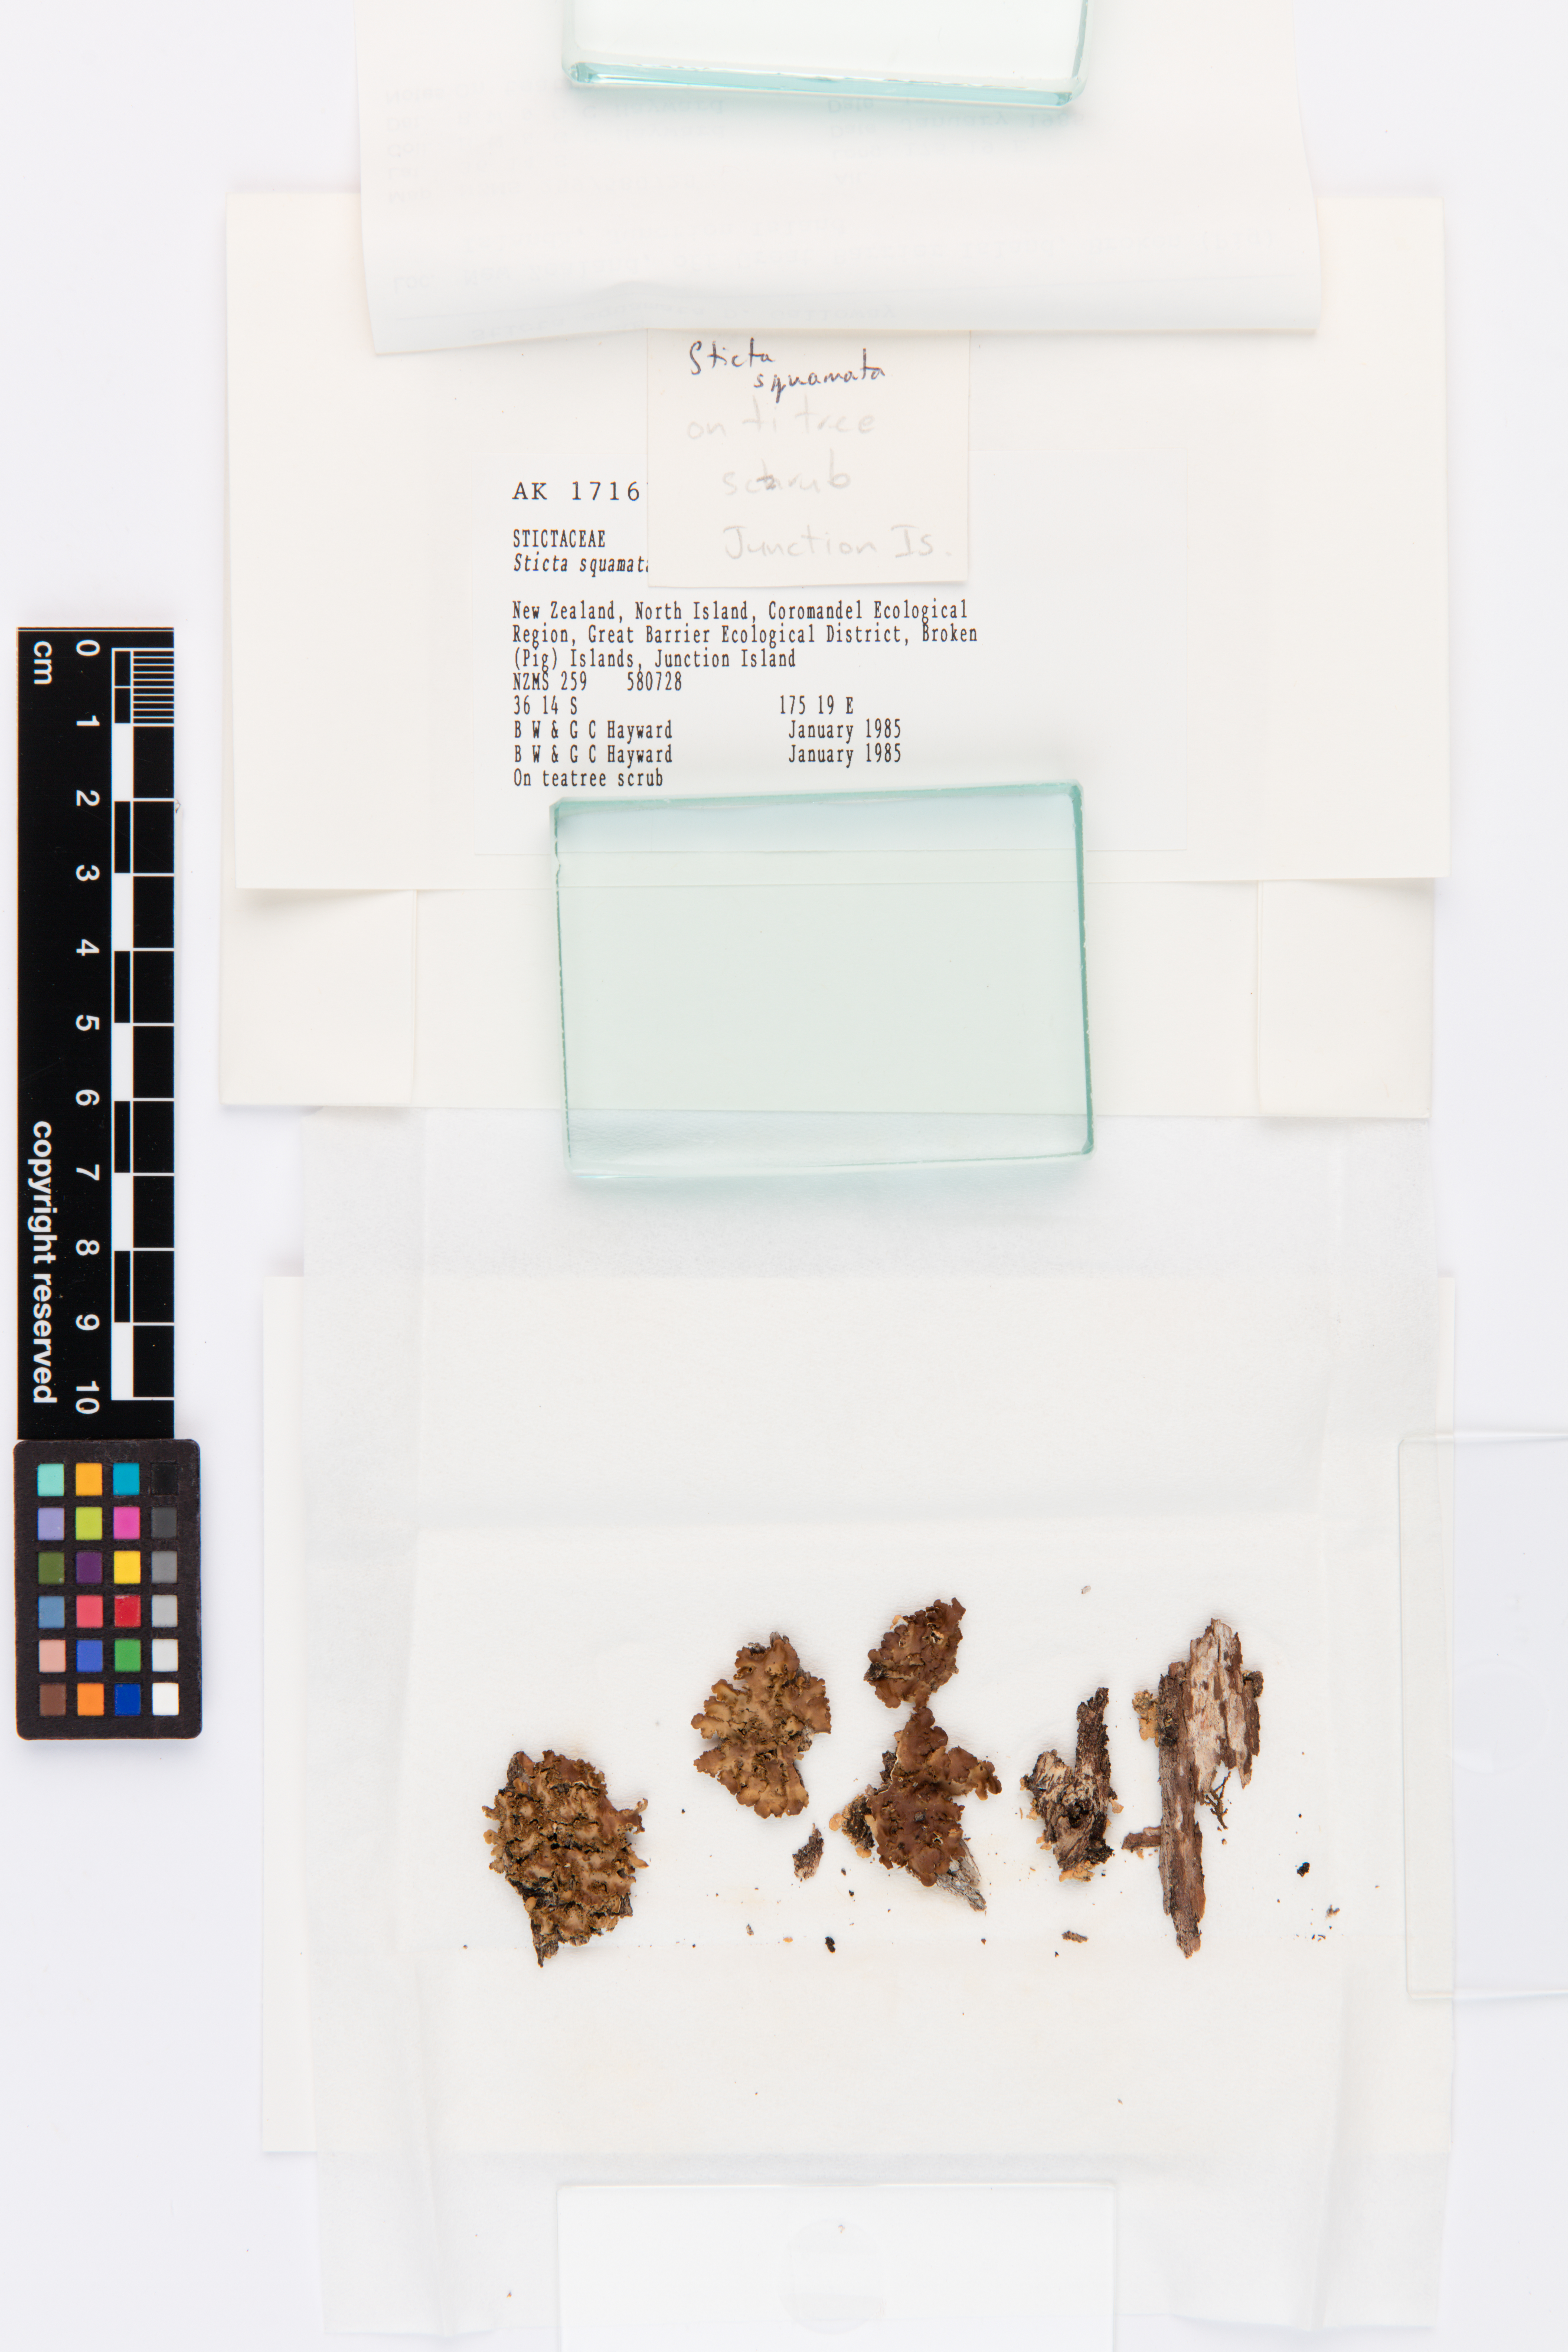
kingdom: Fungi
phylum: Ascomycota
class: Lecanoromycetes
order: Peltigerales
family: Lobariaceae
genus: Sticta
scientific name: Sticta squamata
